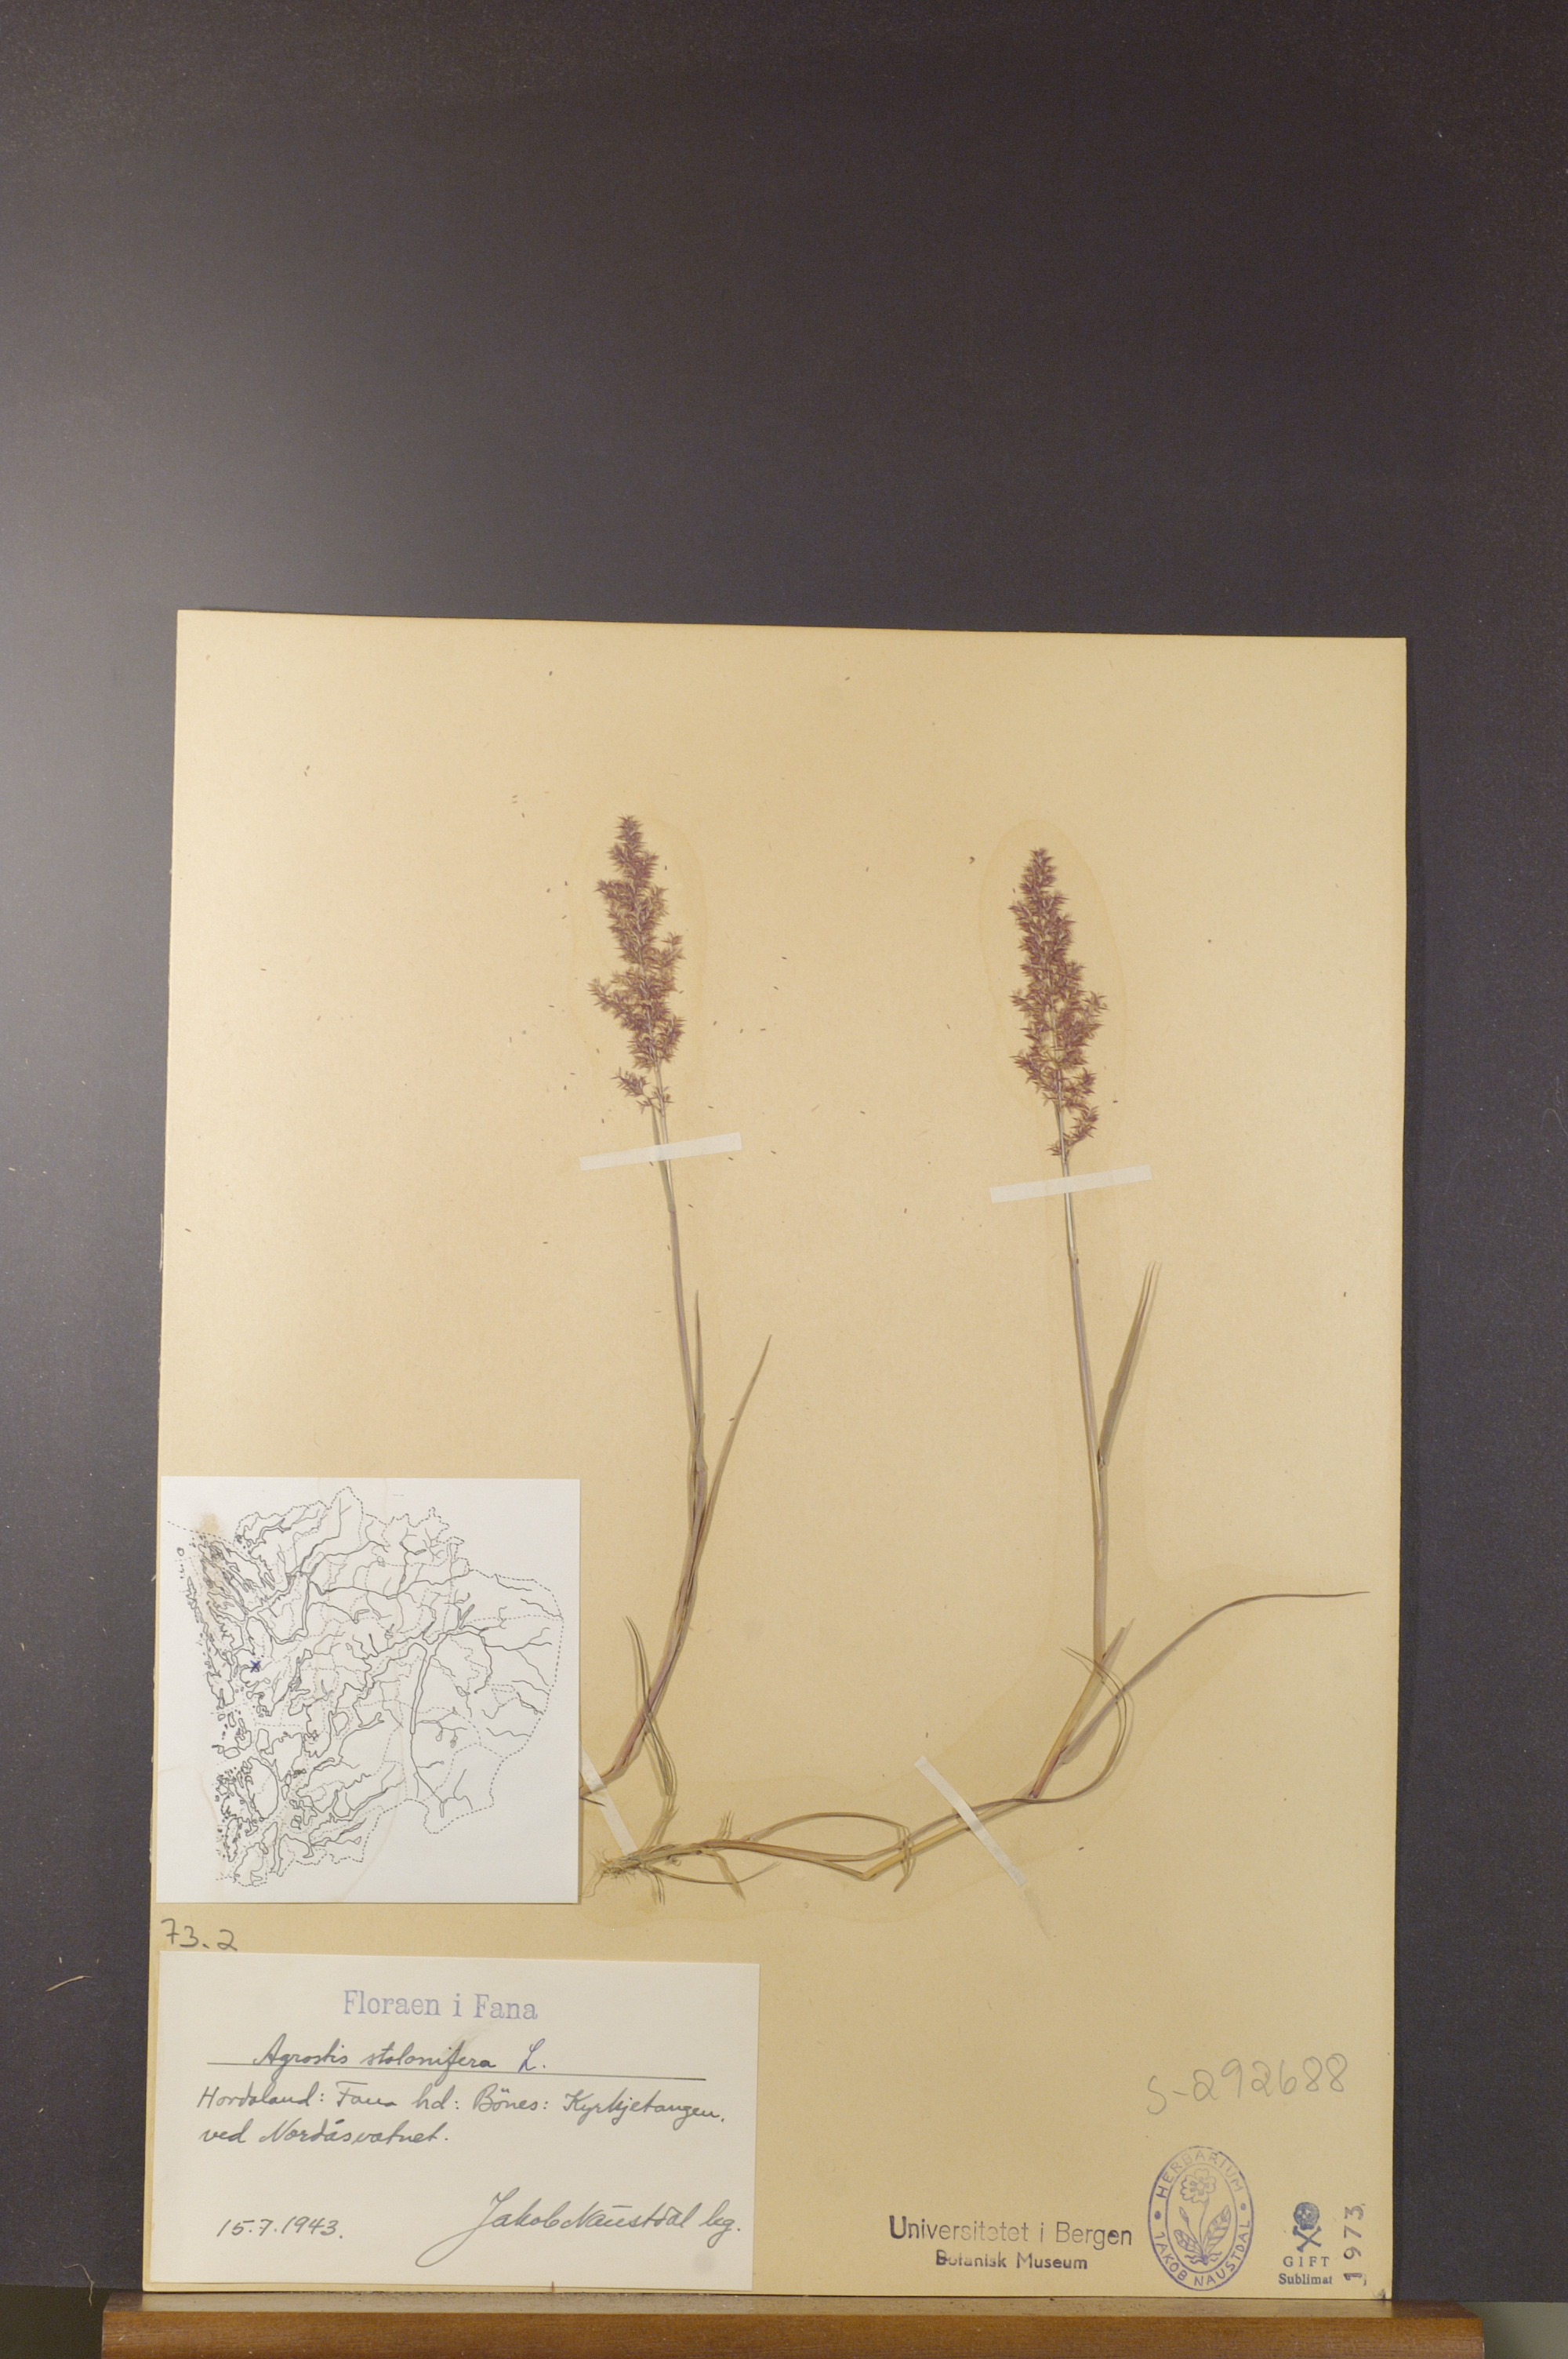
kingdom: Plantae
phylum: Tracheophyta
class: Liliopsida
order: Poales
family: Poaceae
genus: Agrostis
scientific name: Agrostis stolonifera
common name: Creeping bentgrass
